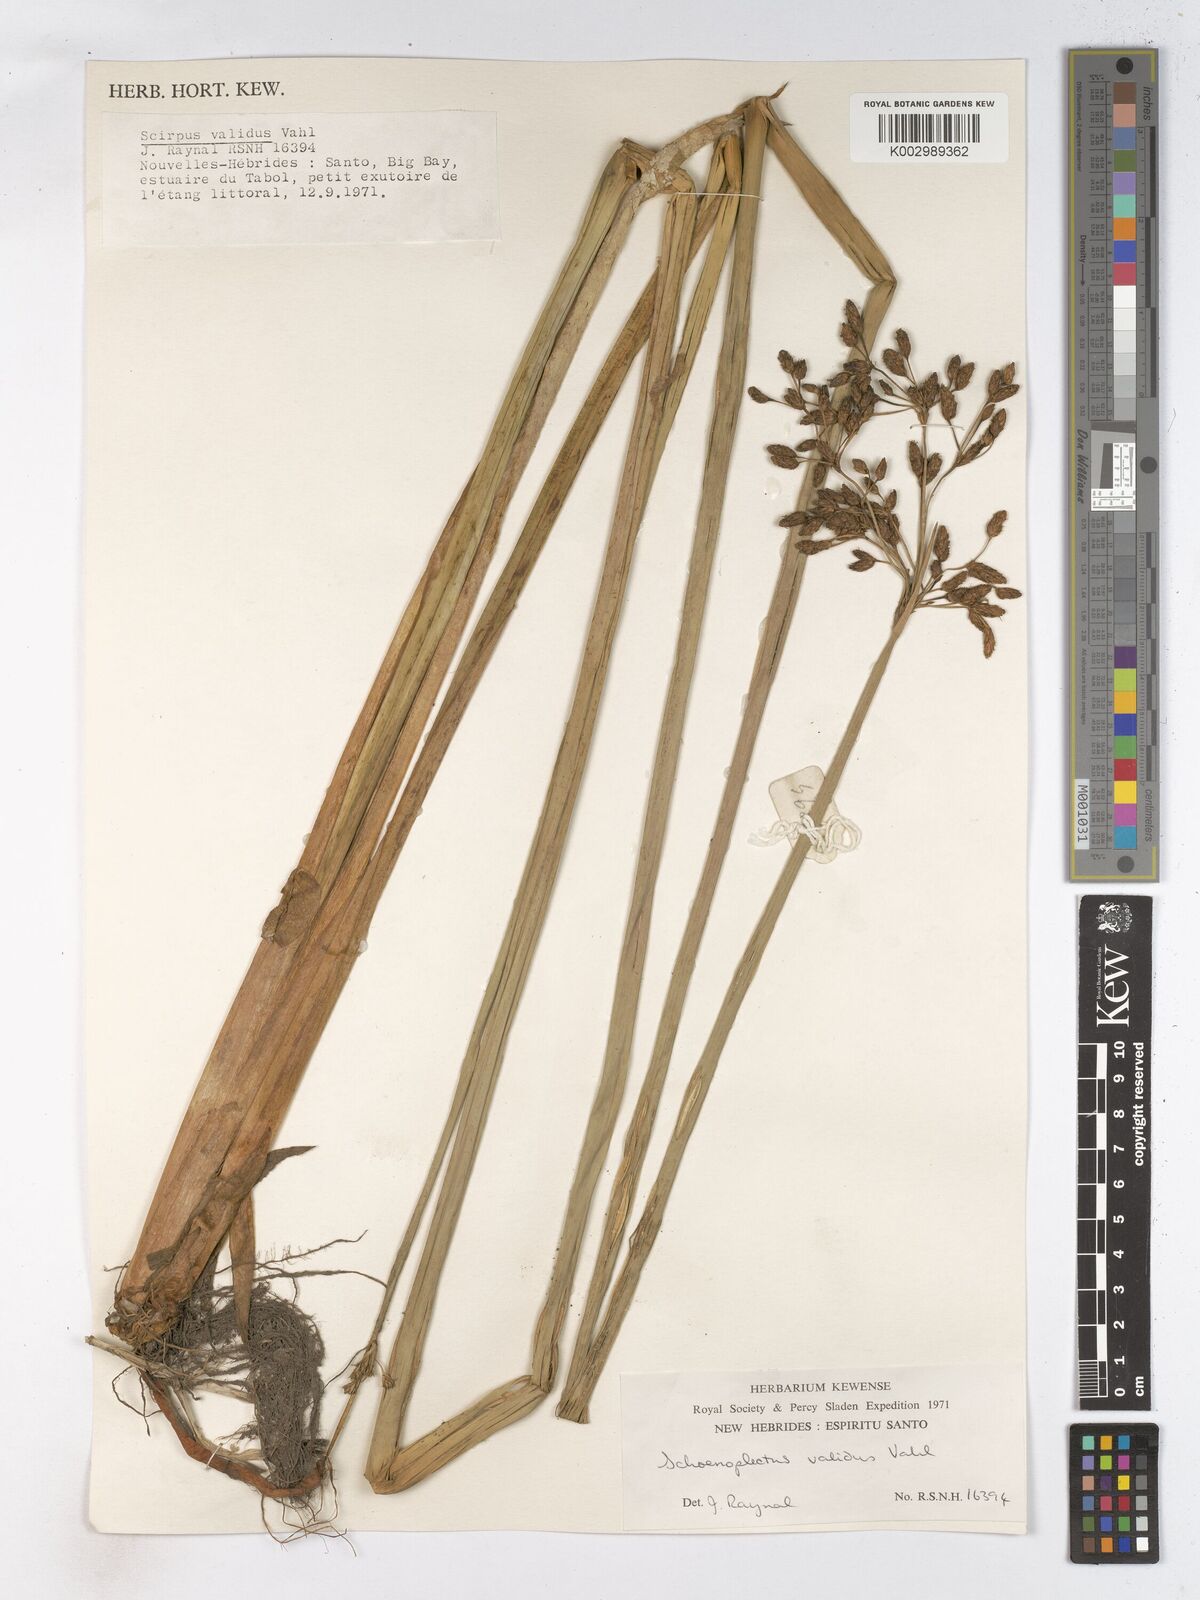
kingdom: Plantae
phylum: Tracheophyta
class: Liliopsida
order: Poales
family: Cyperaceae
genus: Schoenoplectus
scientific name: Schoenoplectus lacustris
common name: Common club-rush
